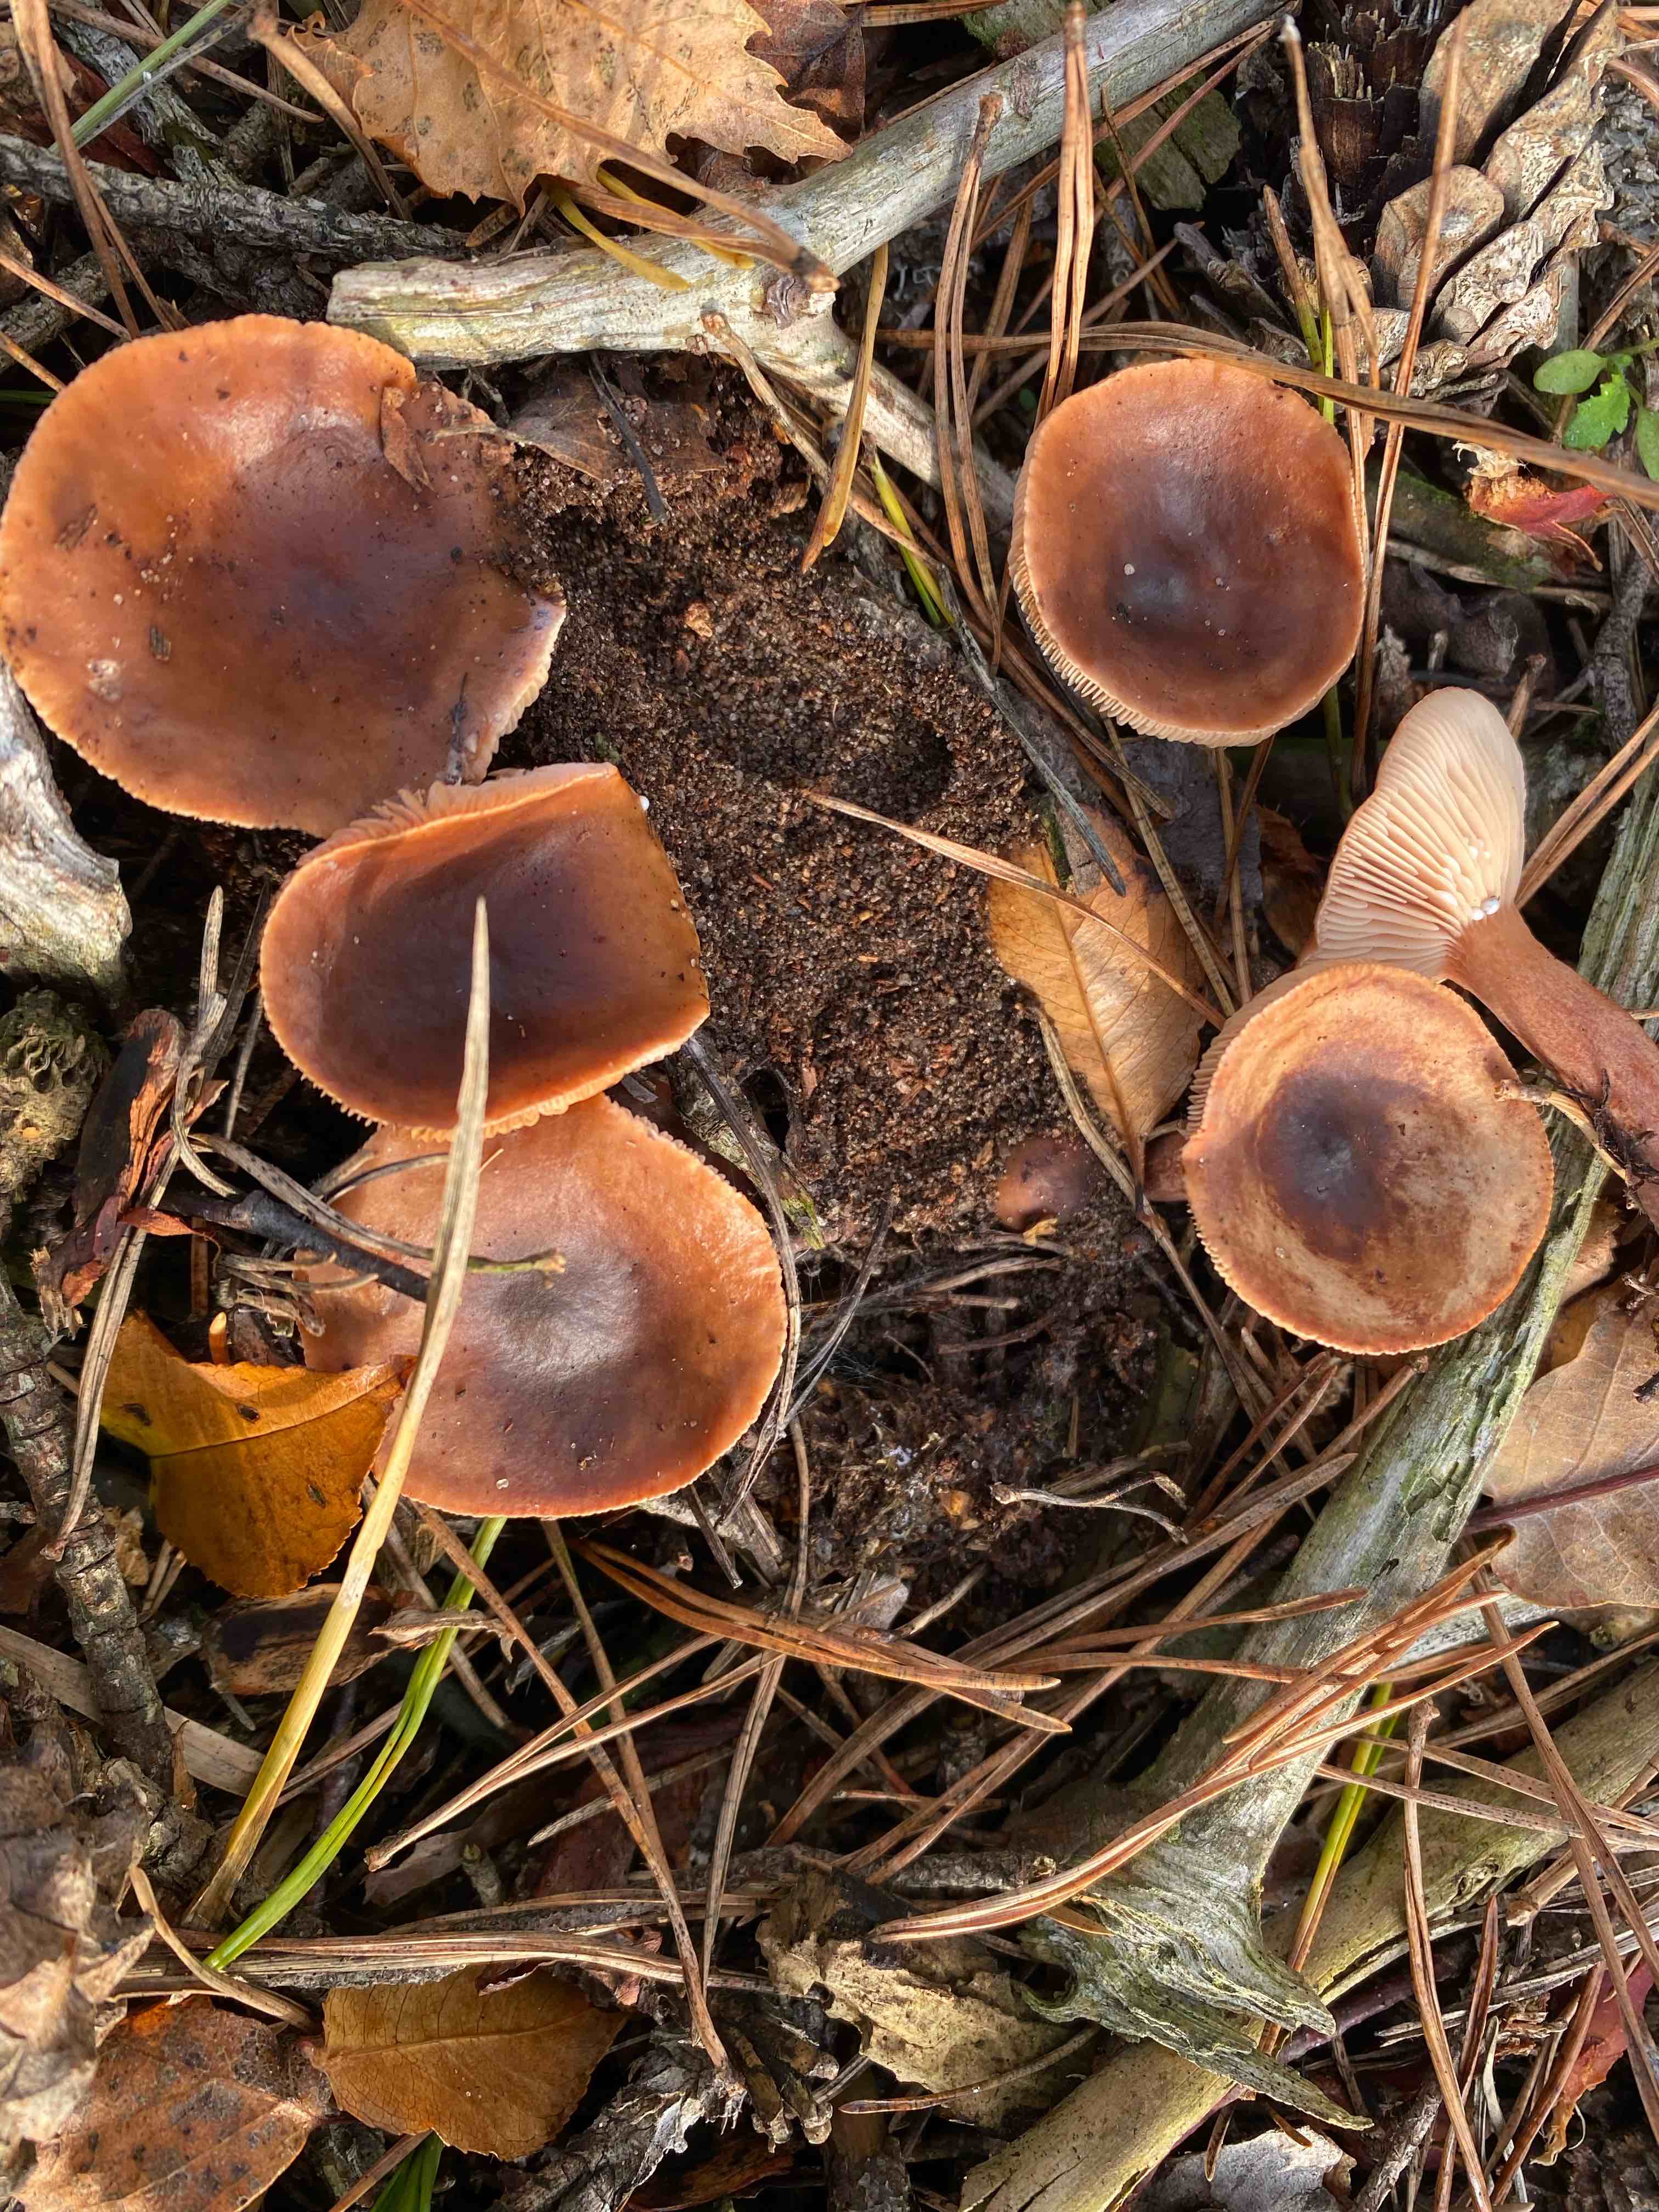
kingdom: Fungi
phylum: Basidiomycota
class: Agaricomycetes
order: Russulales
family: Russulaceae
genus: Lactarius
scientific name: Lactarius hepaticus
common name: leverbrun mælkehat
